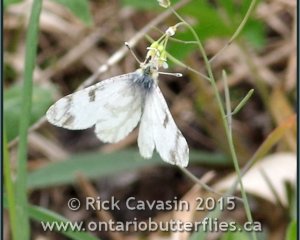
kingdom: Animalia
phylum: Arthropoda
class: Insecta
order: Lepidoptera
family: Pieridae
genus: Euchloe
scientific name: Euchloe olympia
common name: Olympia Marble
